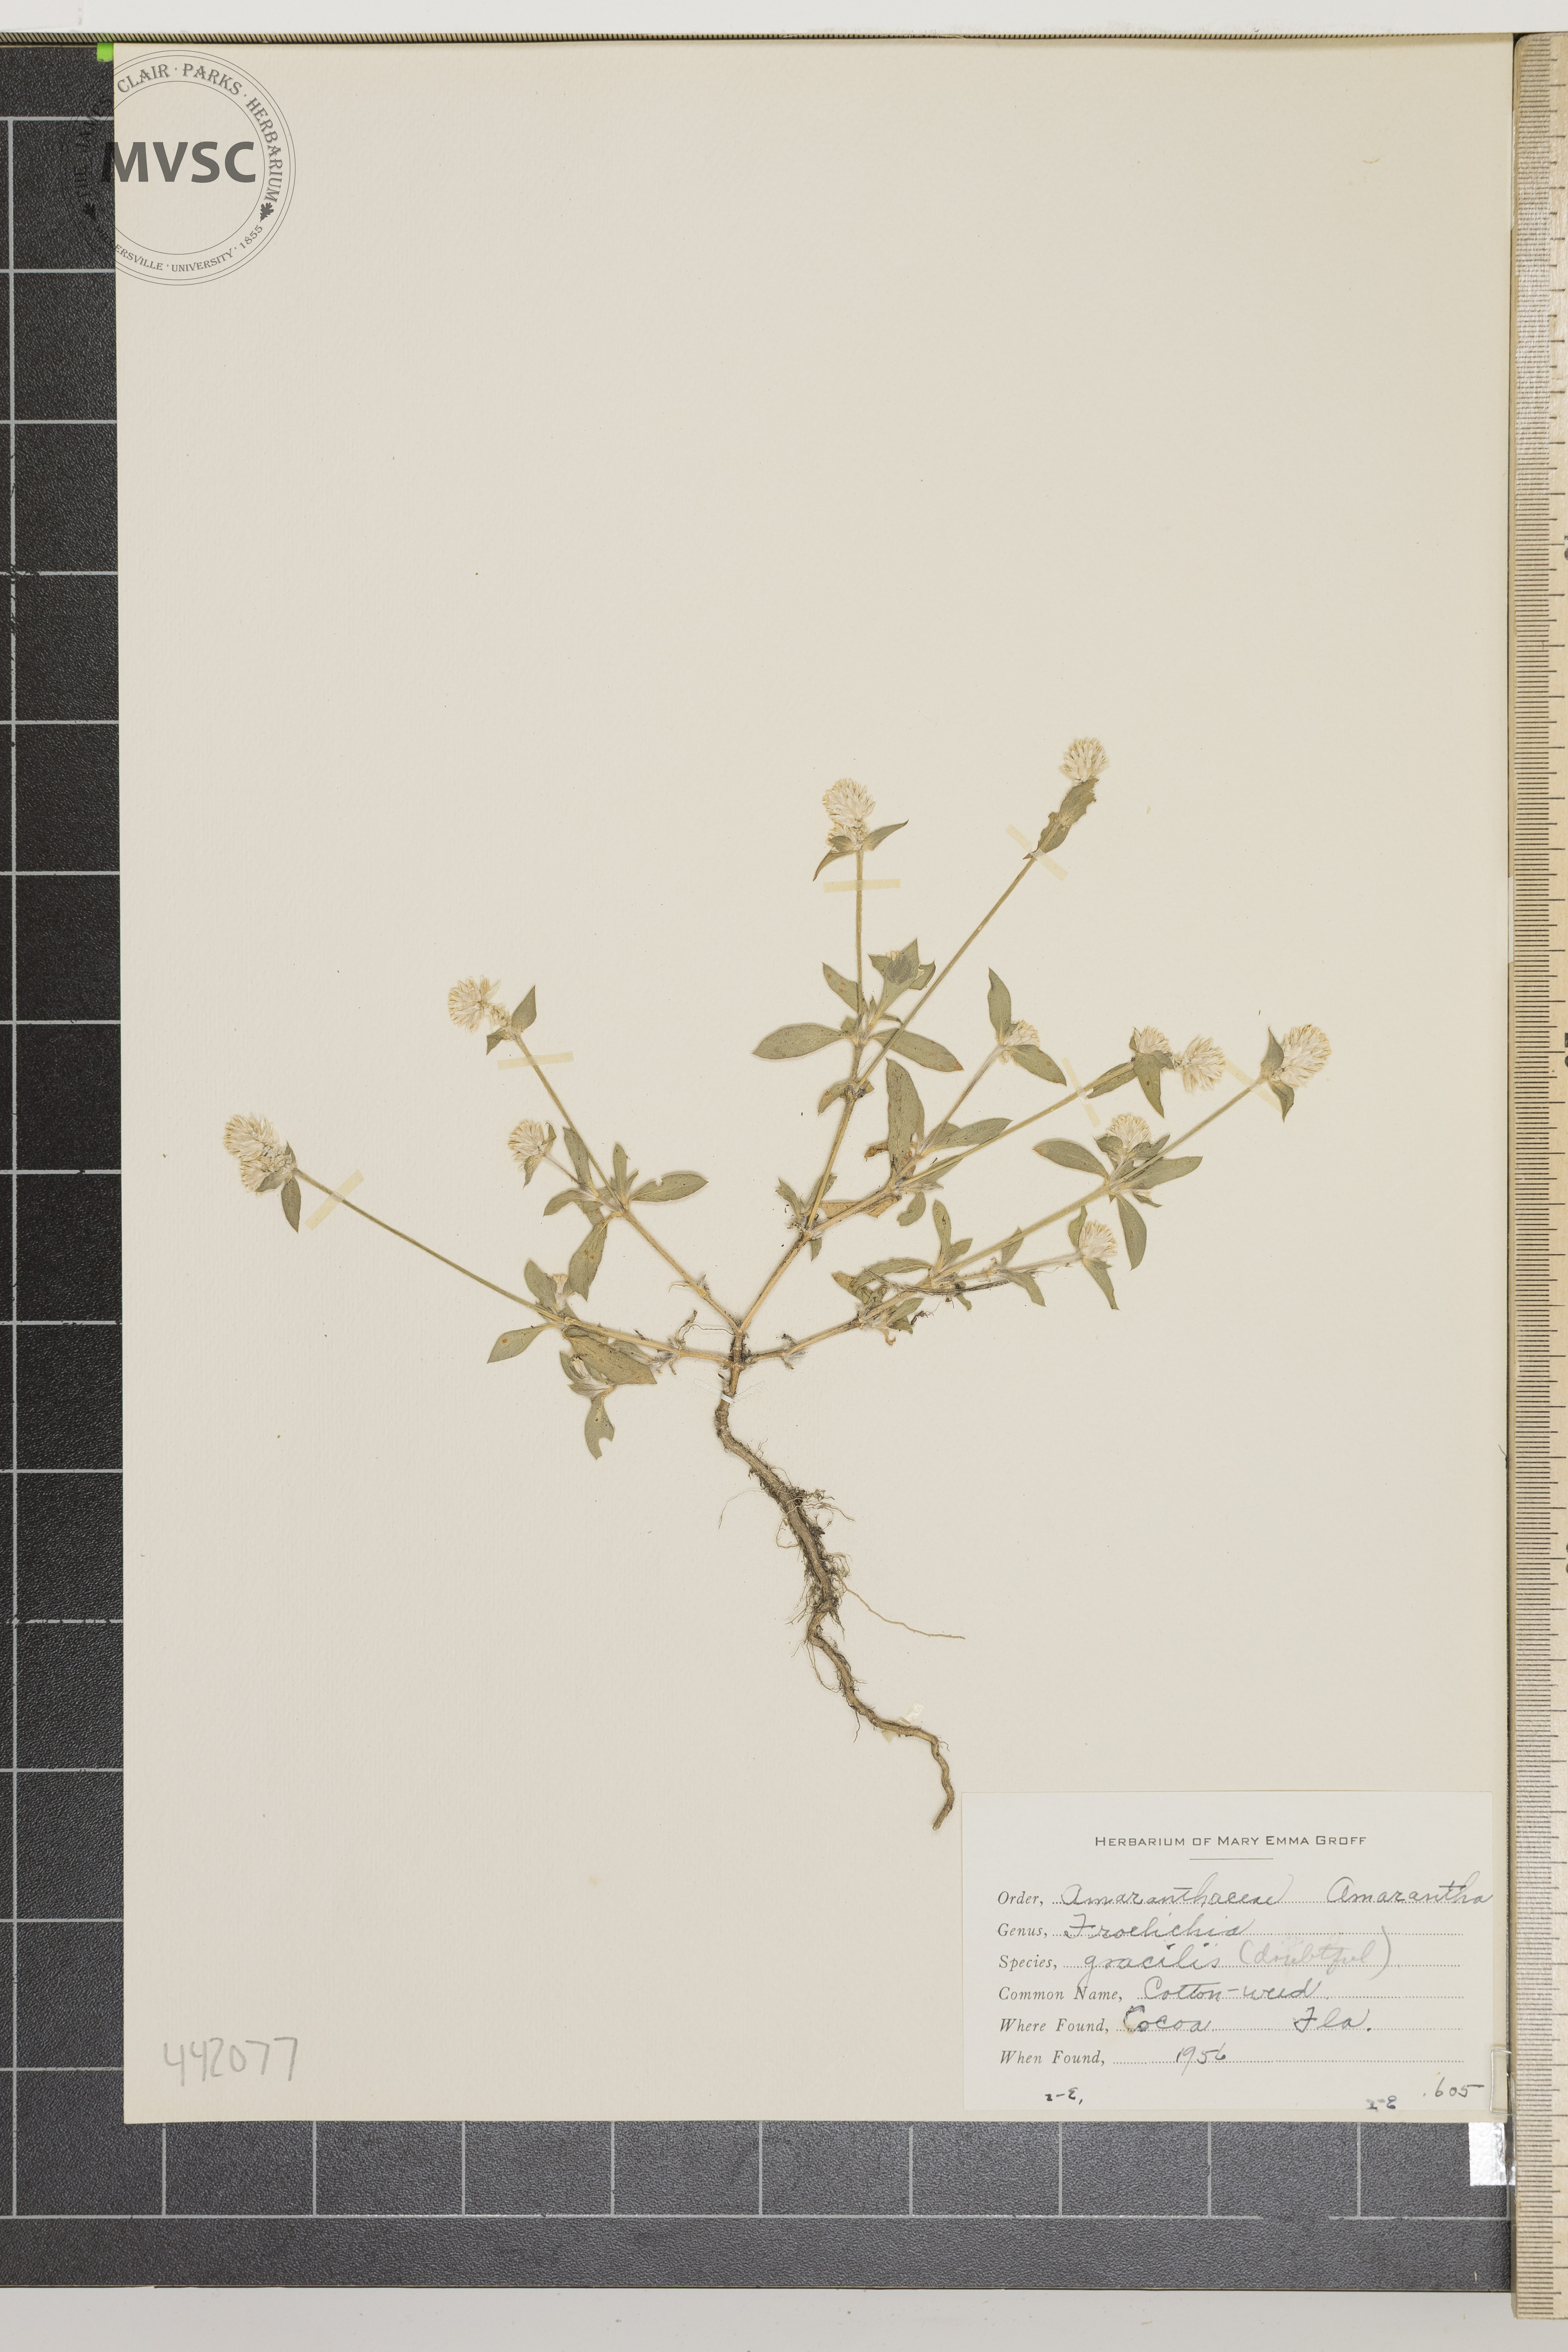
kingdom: Plantae
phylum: Tracheophyta
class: Magnoliopsida
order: Caryophyllales
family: Amaranthaceae
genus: Froelichia
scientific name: Froelichia gracilis
